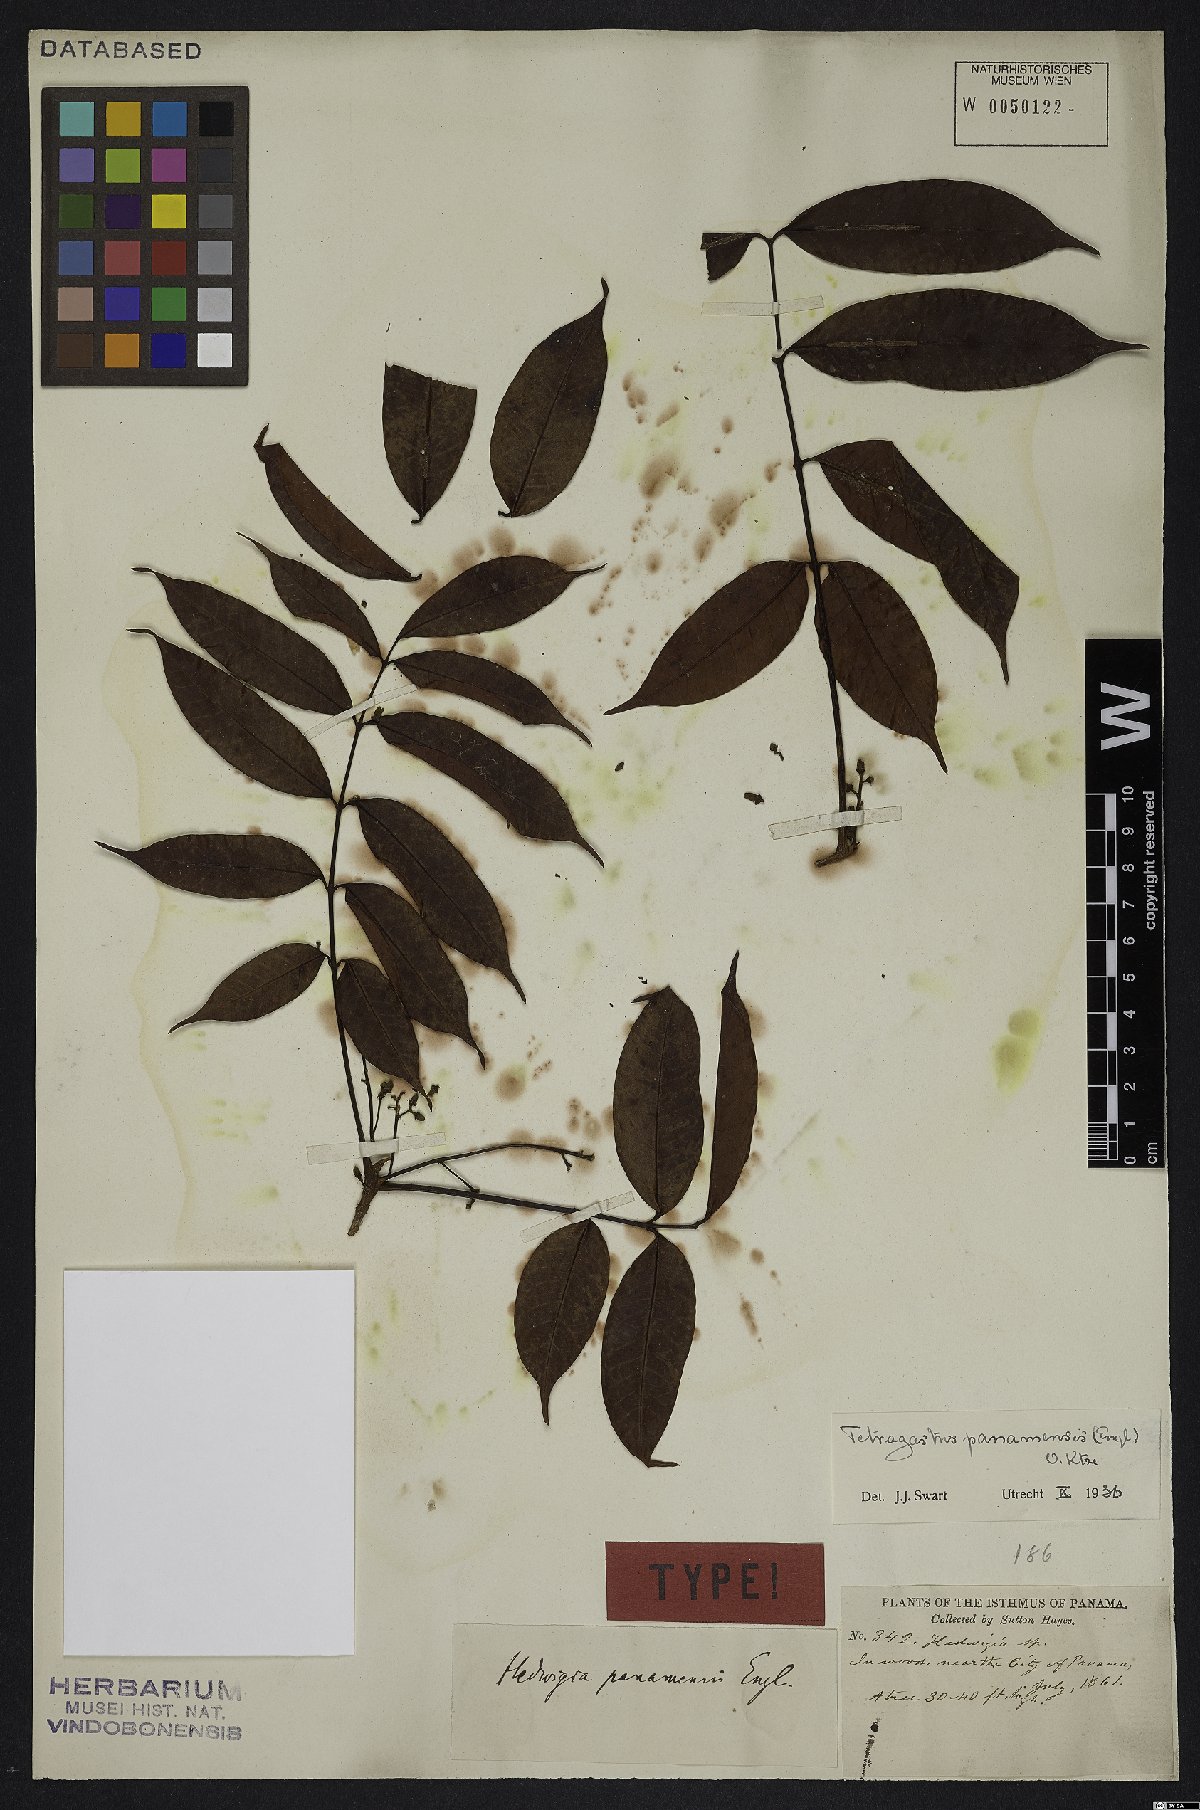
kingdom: Plantae
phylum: Tracheophyta
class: Magnoliopsida
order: Sapindales
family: Burseraceae
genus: Tetragastris
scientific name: Tetragastris panamensis
